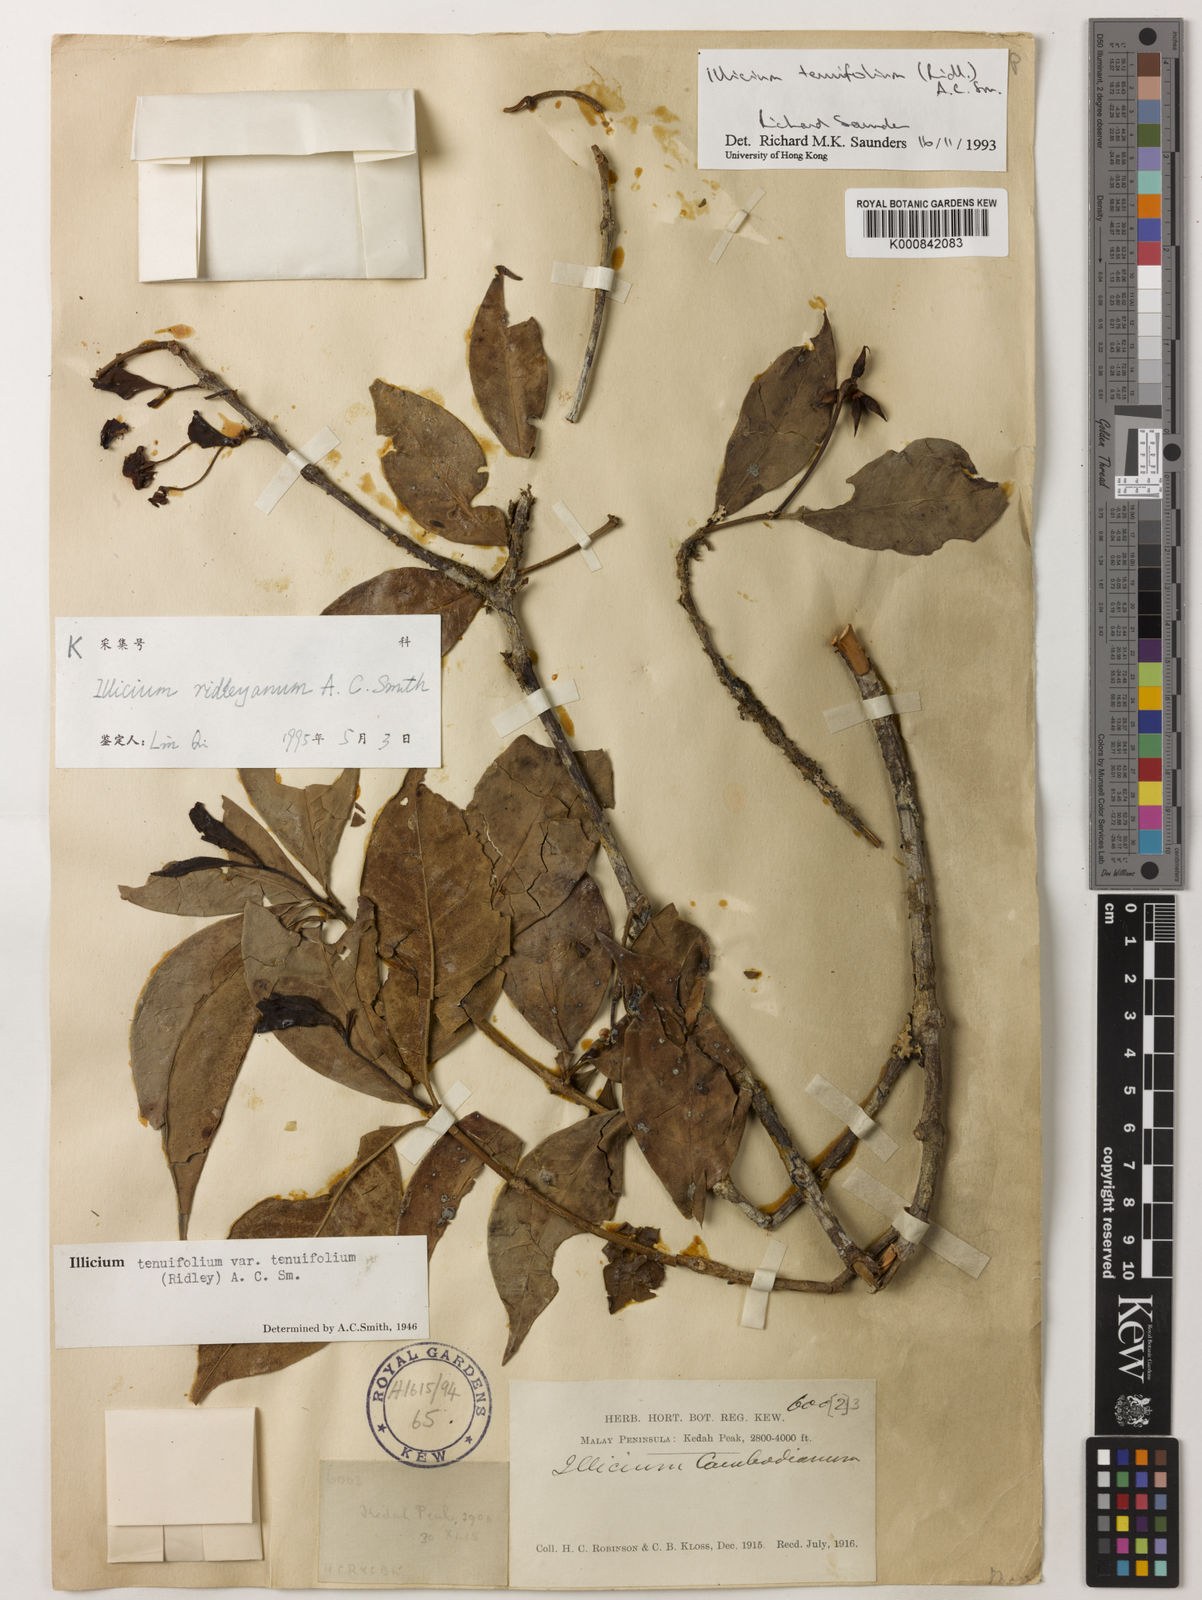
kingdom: Plantae
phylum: Tracheophyta
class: Magnoliopsida
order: Austrobaileyales
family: Schisandraceae
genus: Illicium
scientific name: Illicium ridleyanum
